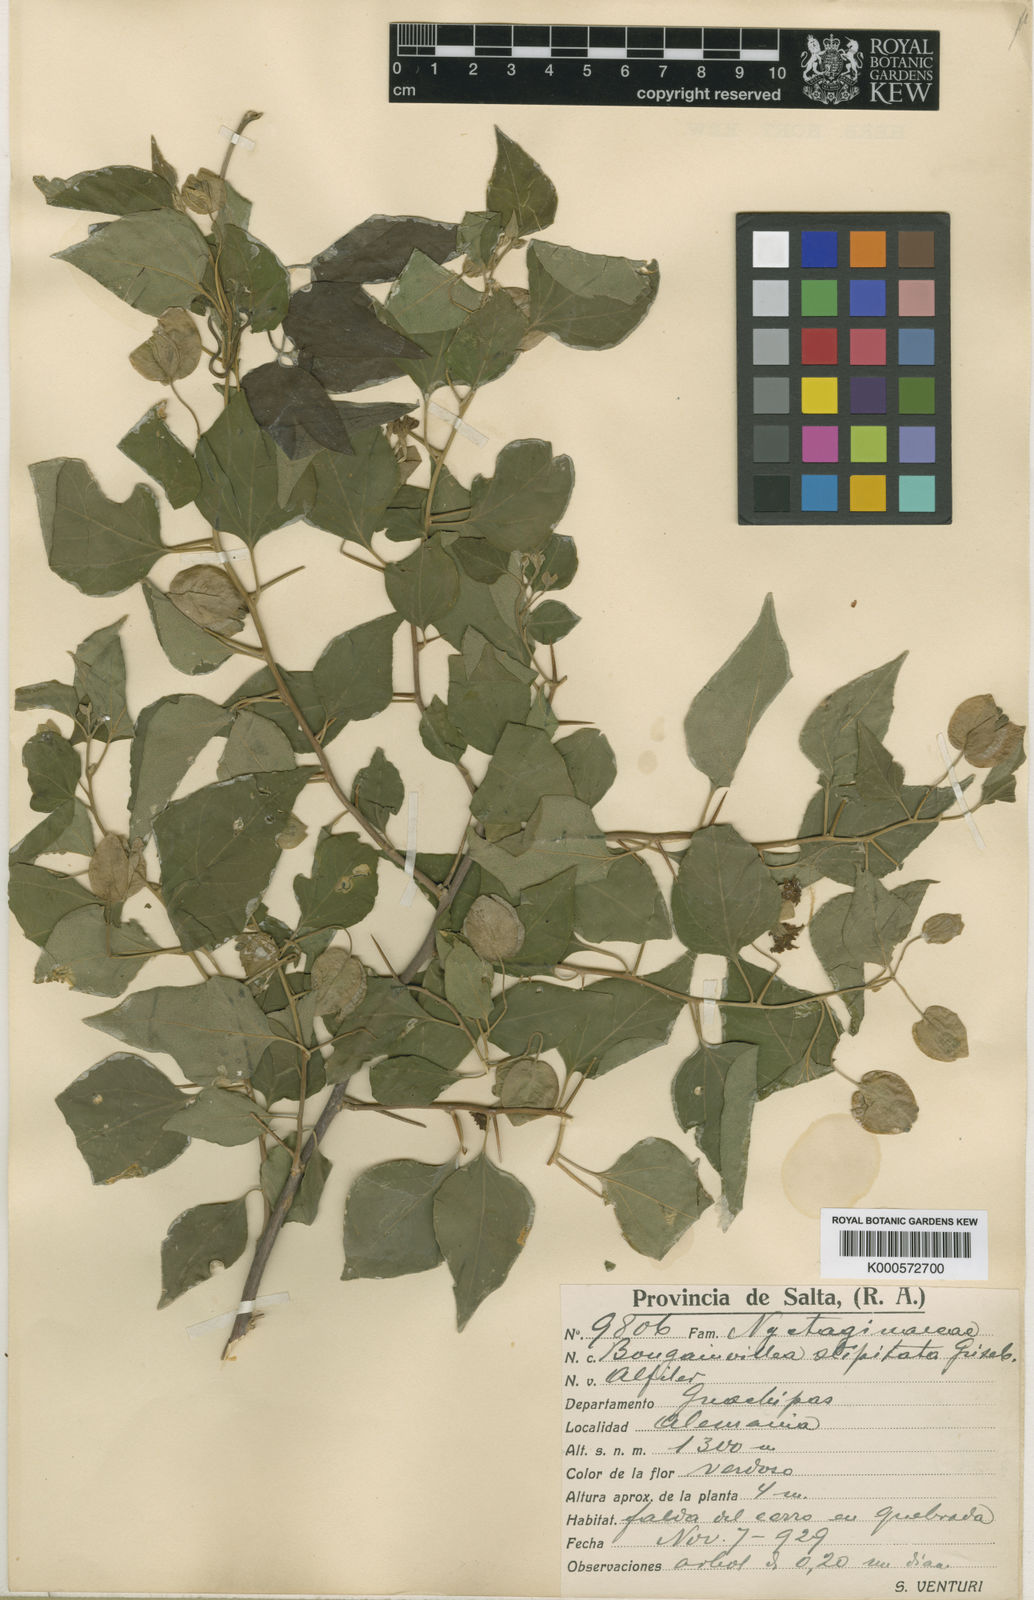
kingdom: Plantae
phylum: Tracheophyta
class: Magnoliopsida
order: Caryophyllales
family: Nyctaginaceae
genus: Bougainvillea
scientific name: Bougainvillea stipitata
